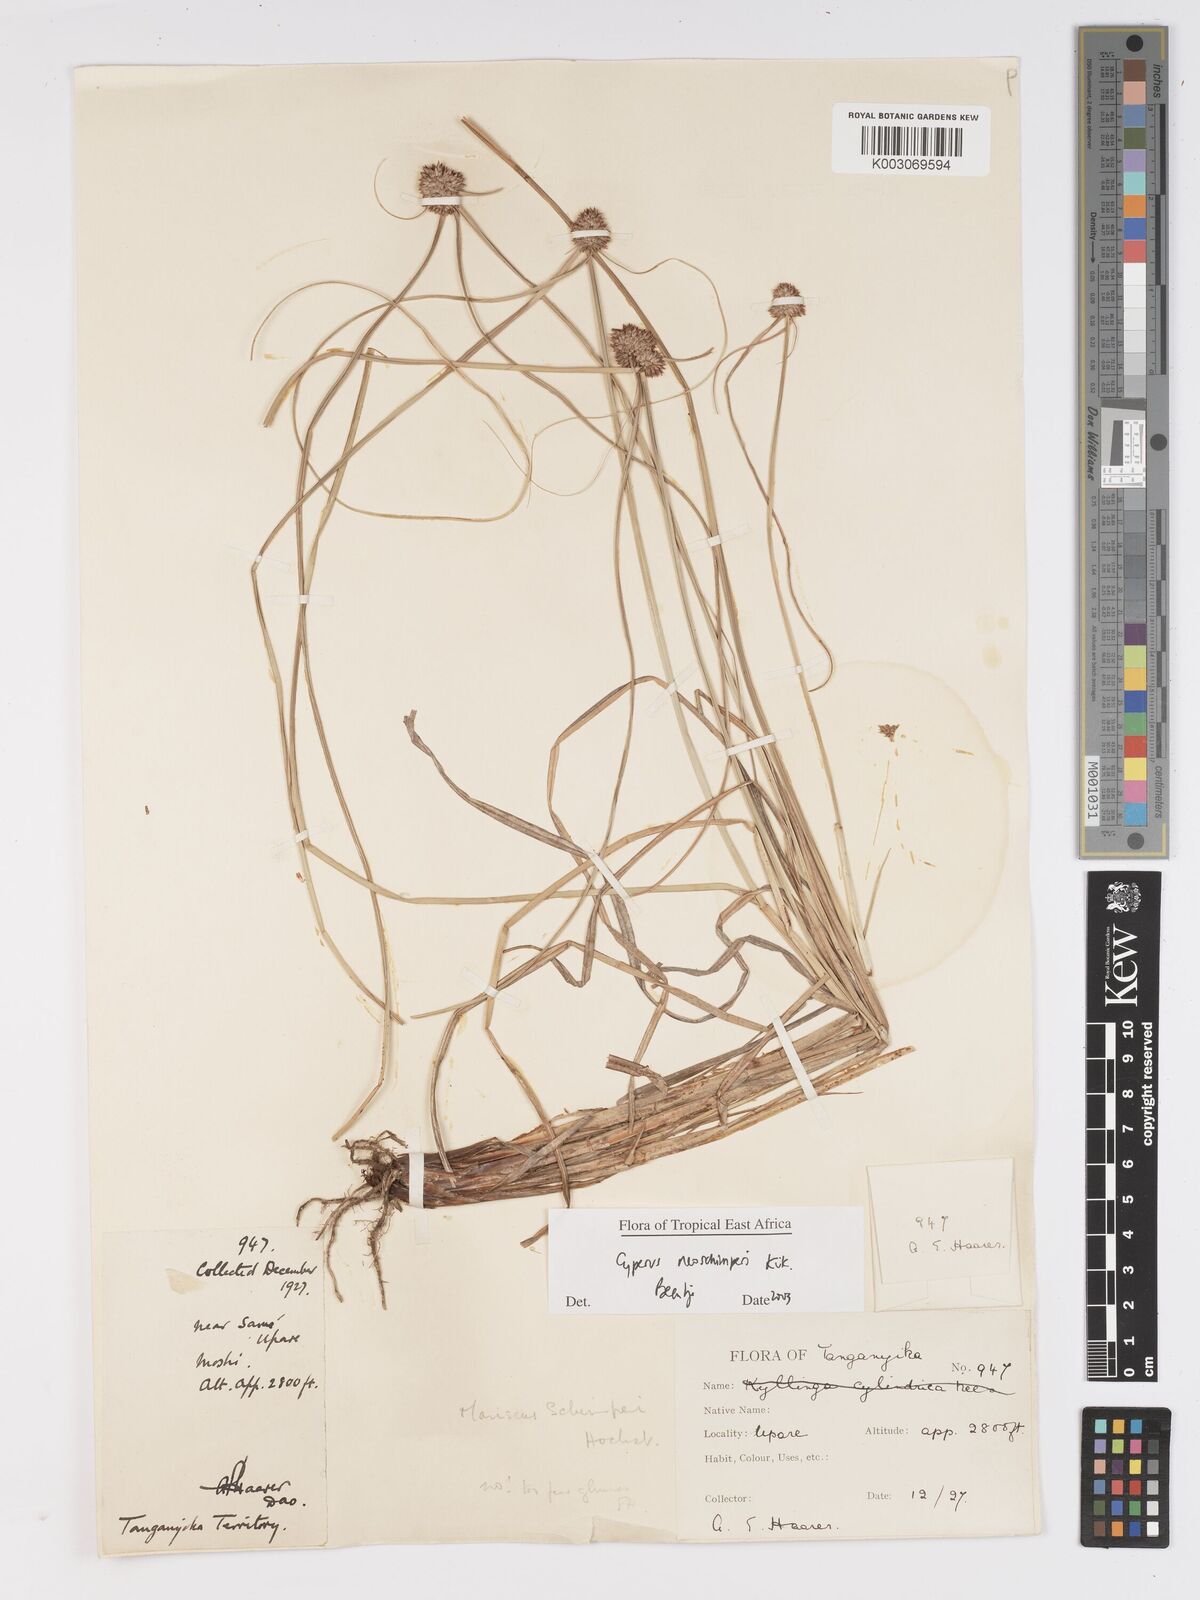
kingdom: Plantae
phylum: Tracheophyta
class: Liliopsida
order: Poales
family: Cyperaceae
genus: Cyperus
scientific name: Cyperus cruentus
